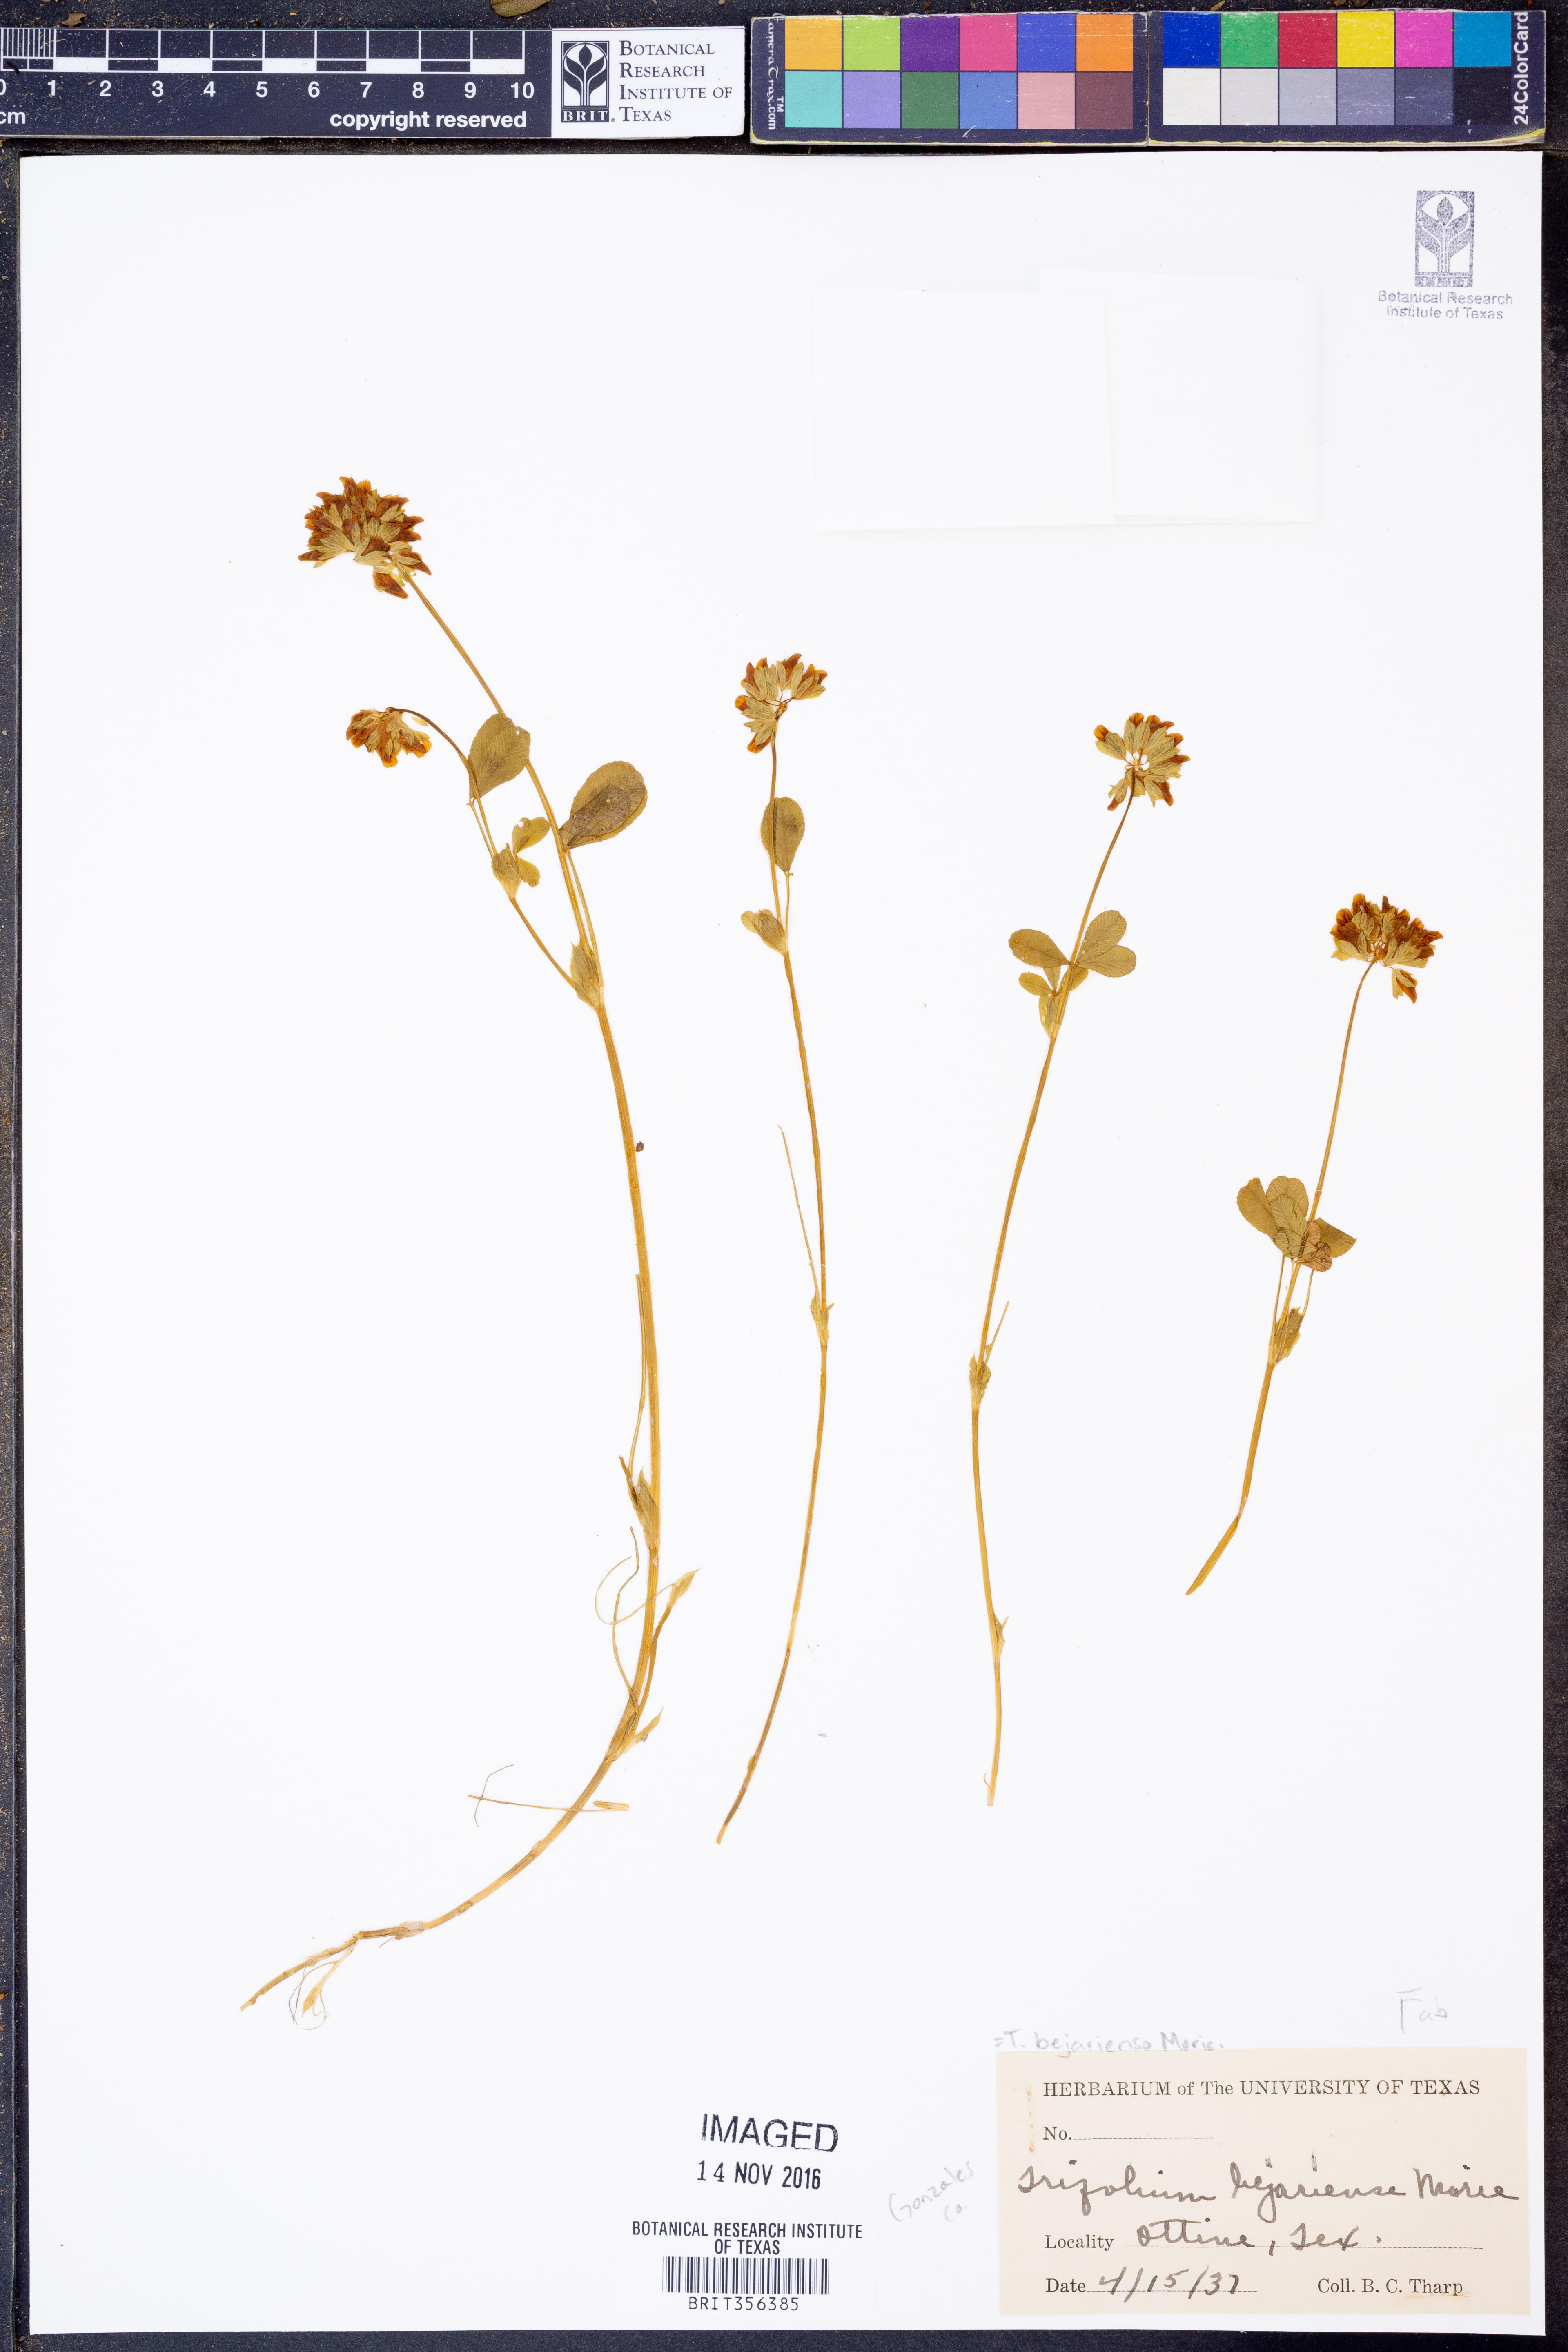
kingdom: Plantae
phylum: Tracheophyta
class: Magnoliopsida
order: Fabales
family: Fabaceae
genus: Trifolium
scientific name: Trifolium bejariense
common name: Bejar clover
